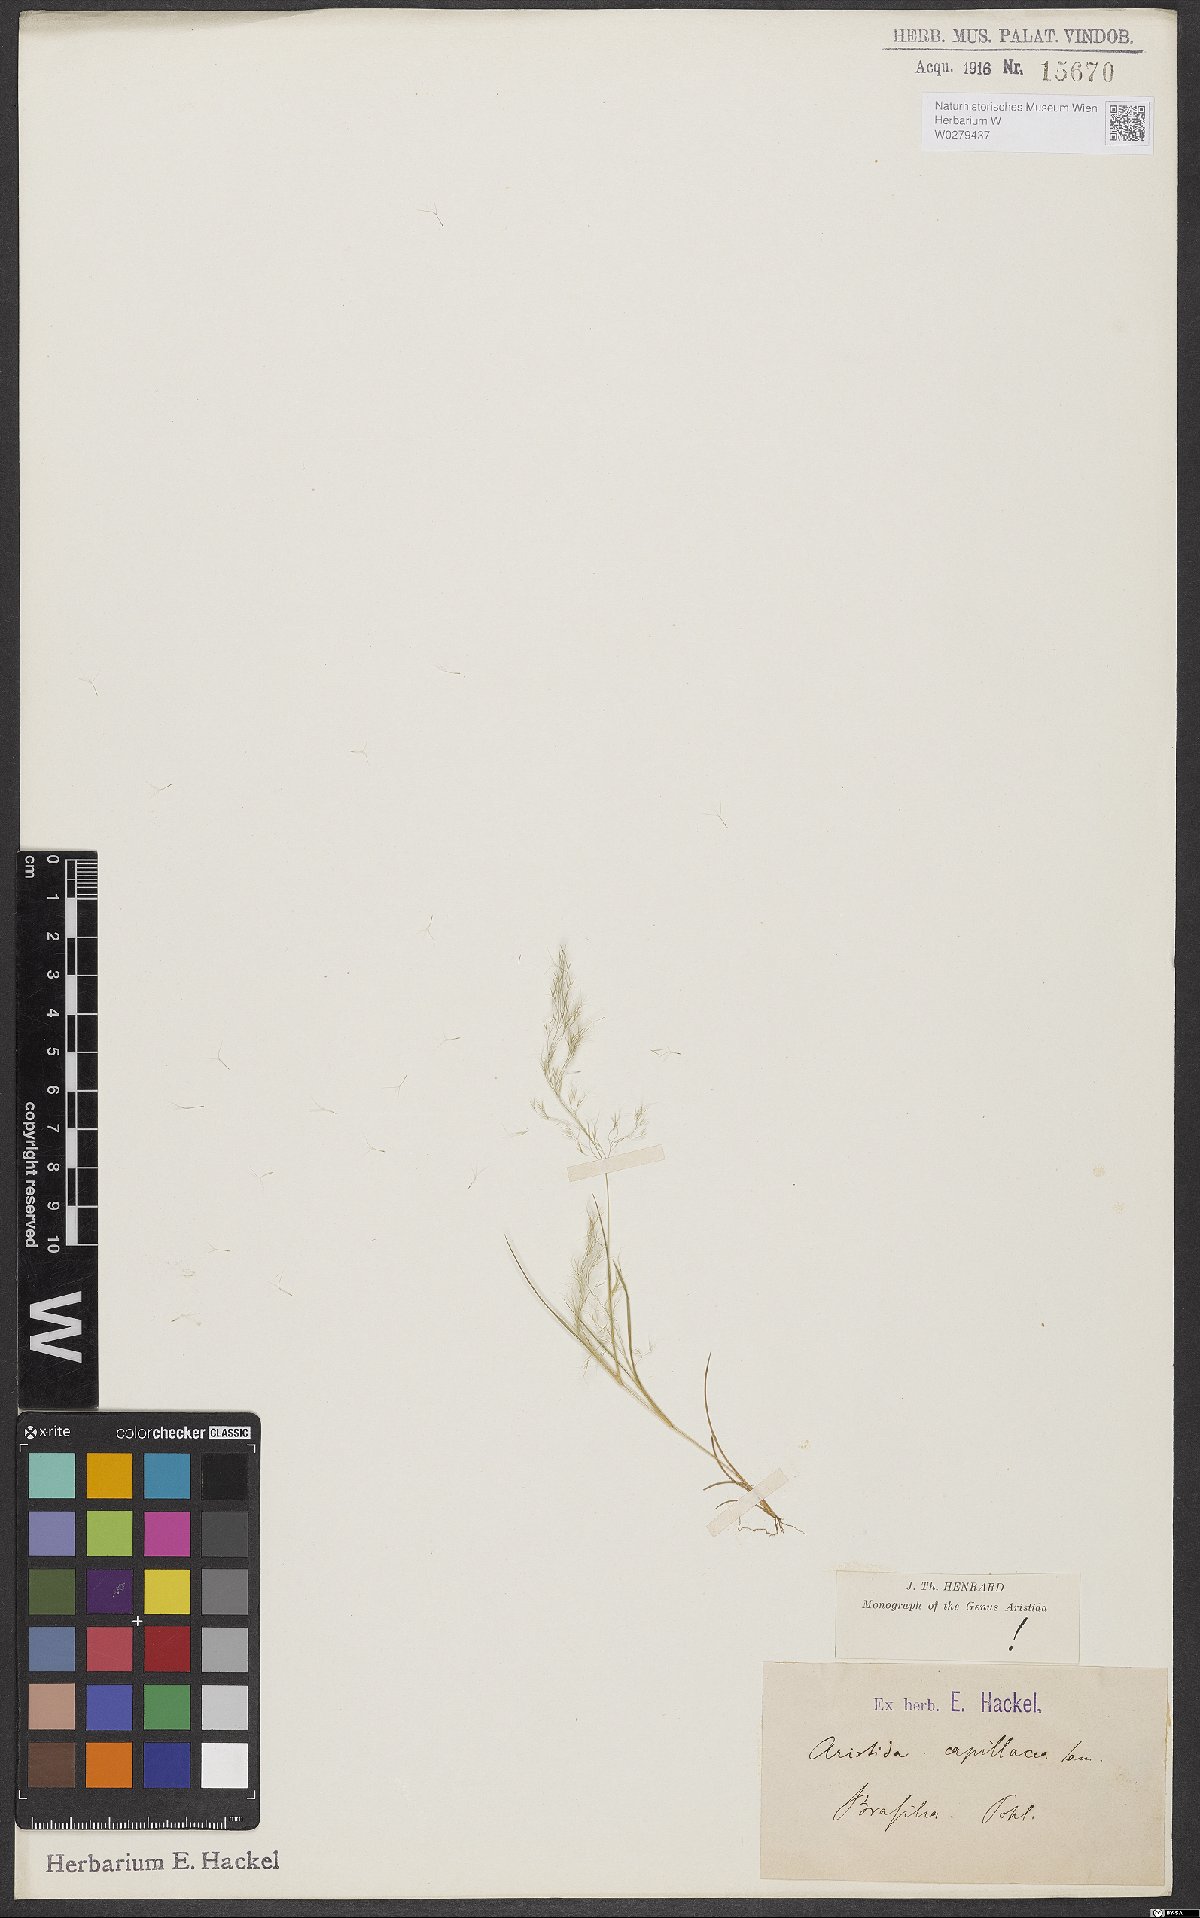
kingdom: Plantae
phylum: Tracheophyta
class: Liliopsida
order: Poales
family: Poaceae
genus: Aristida
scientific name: Aristida capillacea
